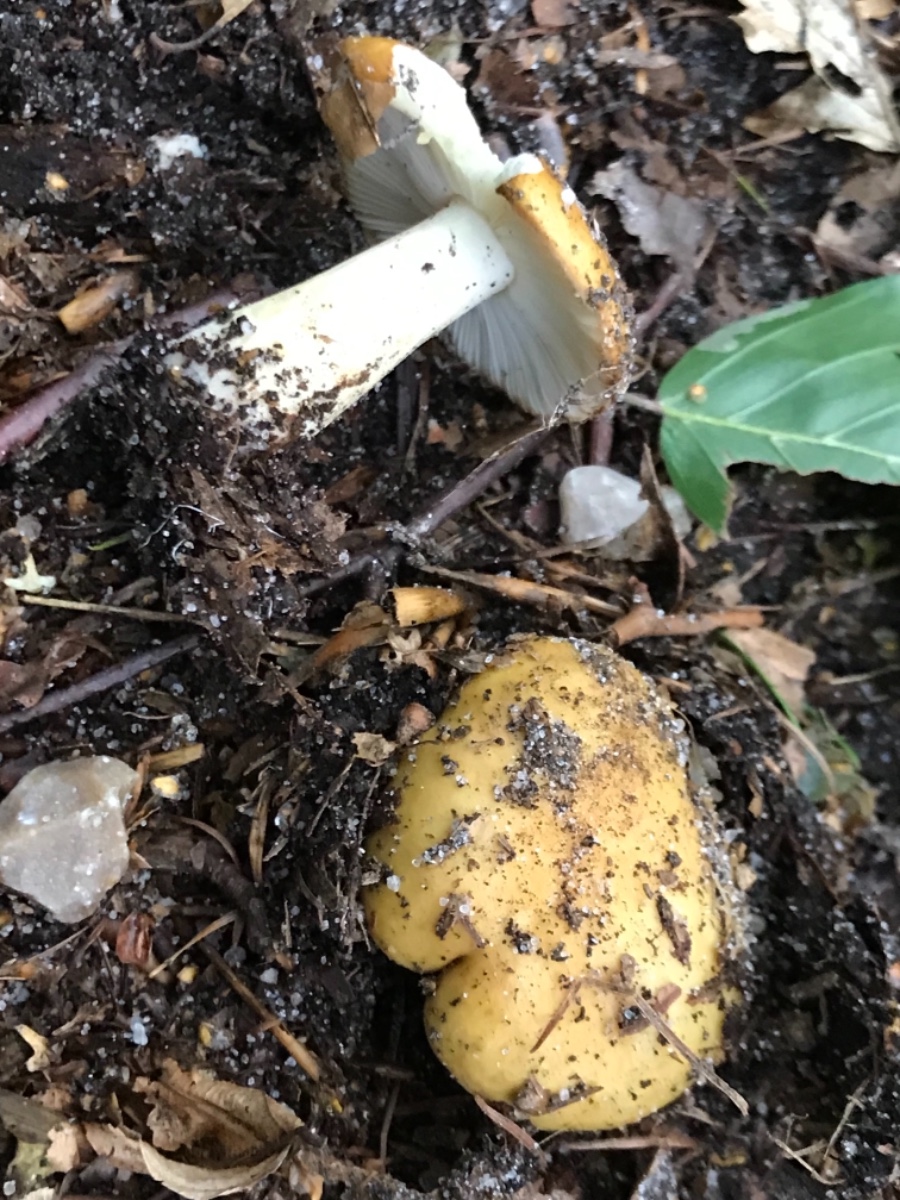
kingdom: Fungi
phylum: Basidiomycota
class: Agaricomycetes
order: Russulales
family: Russulaceae
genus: Russula
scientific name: Russula ochroleuca
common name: okkergul skørhat
